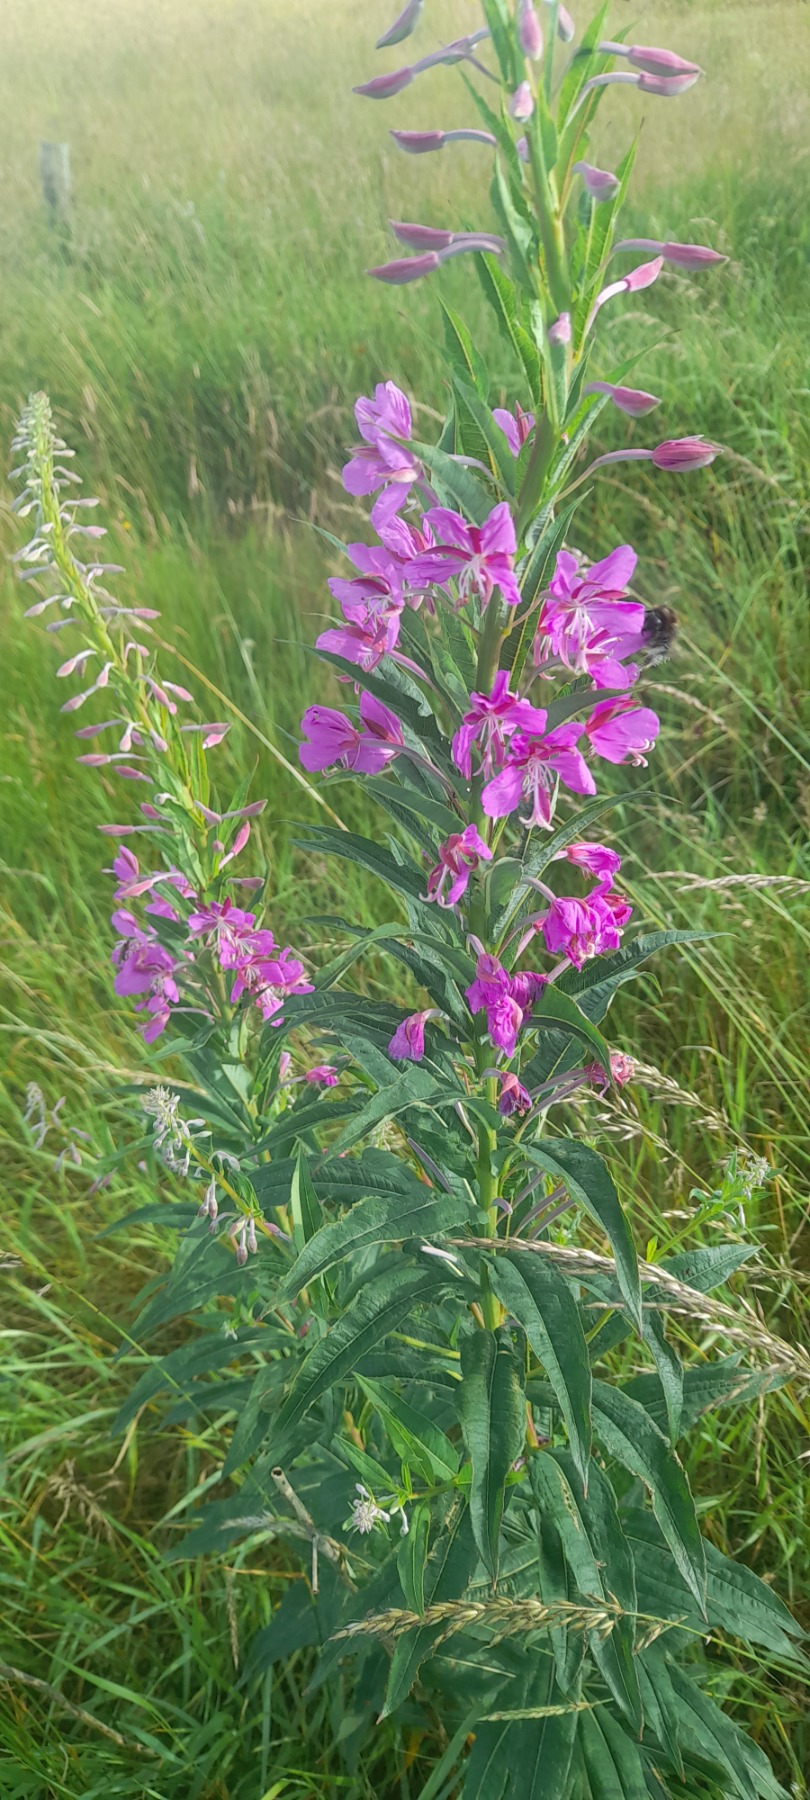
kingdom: Plantae
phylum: Tracheophyta
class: Magnoliopsida
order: Myrtales
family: Onagraceae
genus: Chamaenerion
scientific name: Chamaenerion angustifolium
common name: Gederams
